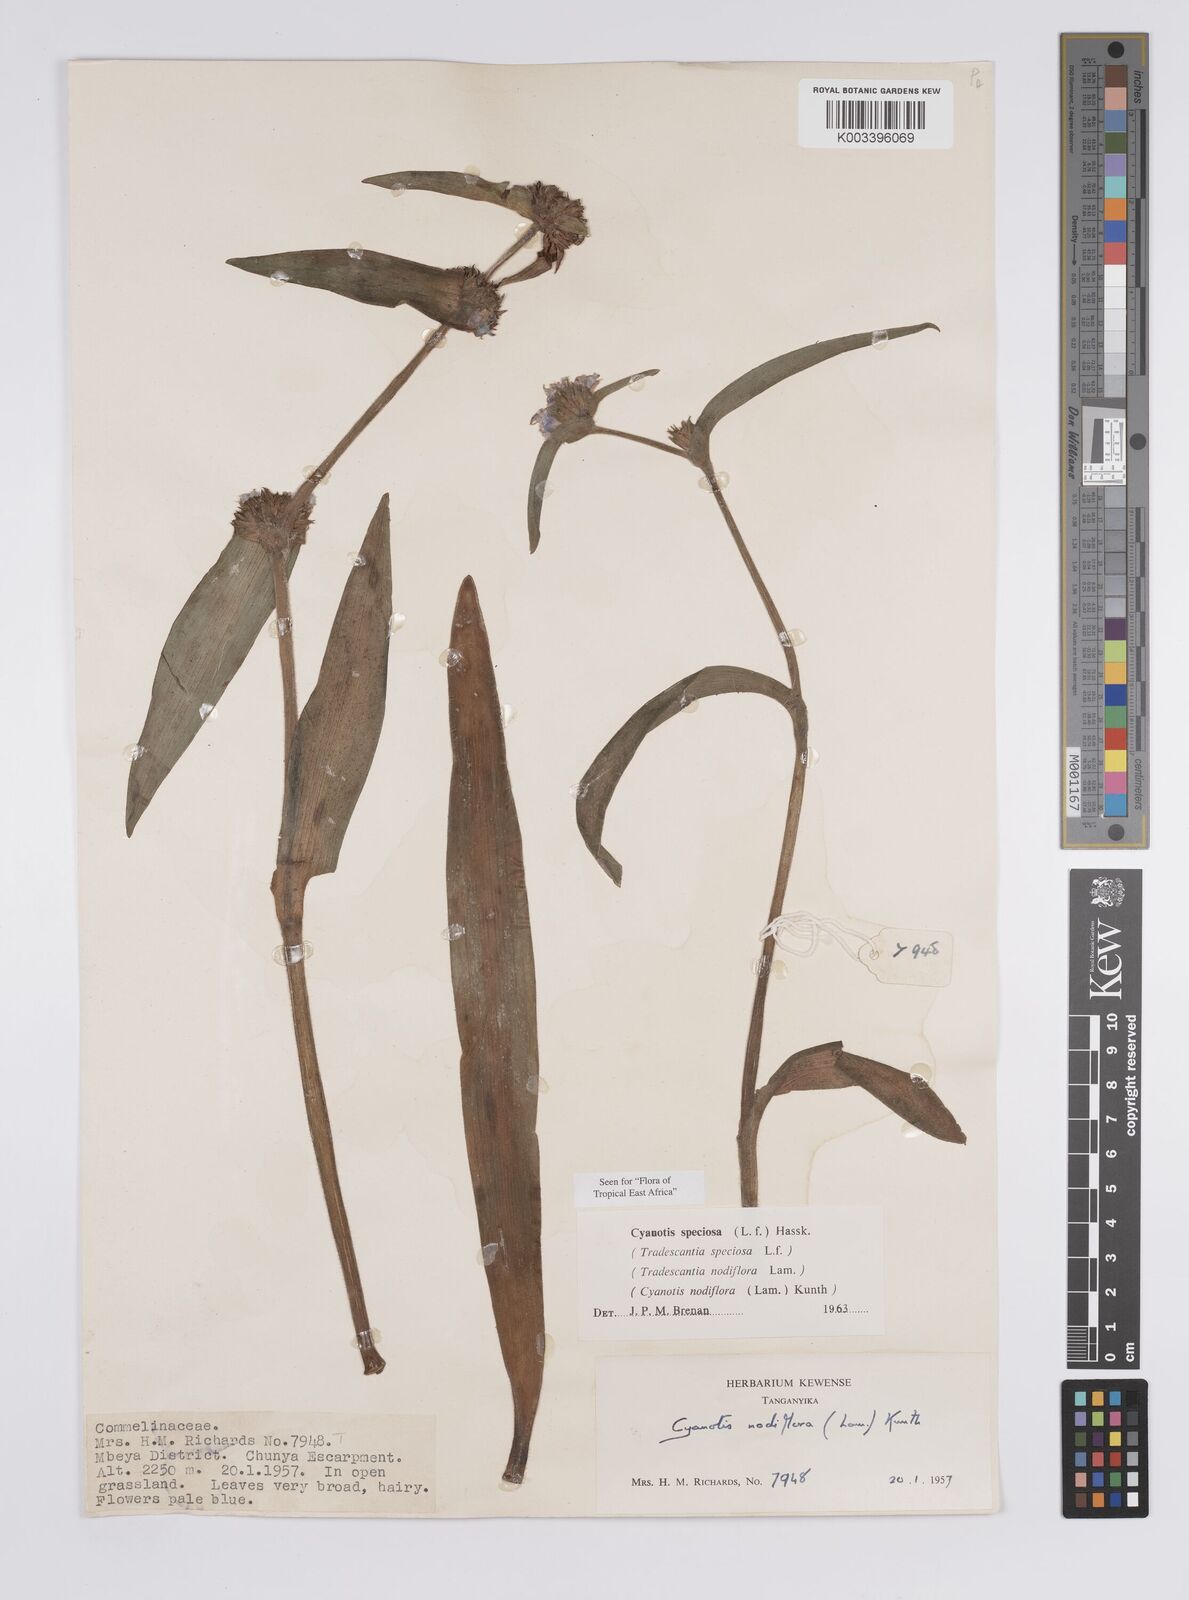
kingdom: Plantae
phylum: Tracheophyta
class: Liliopsida
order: Commelinales
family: Commelinaceae
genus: Cyanotis
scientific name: Cyanotis speciosa
